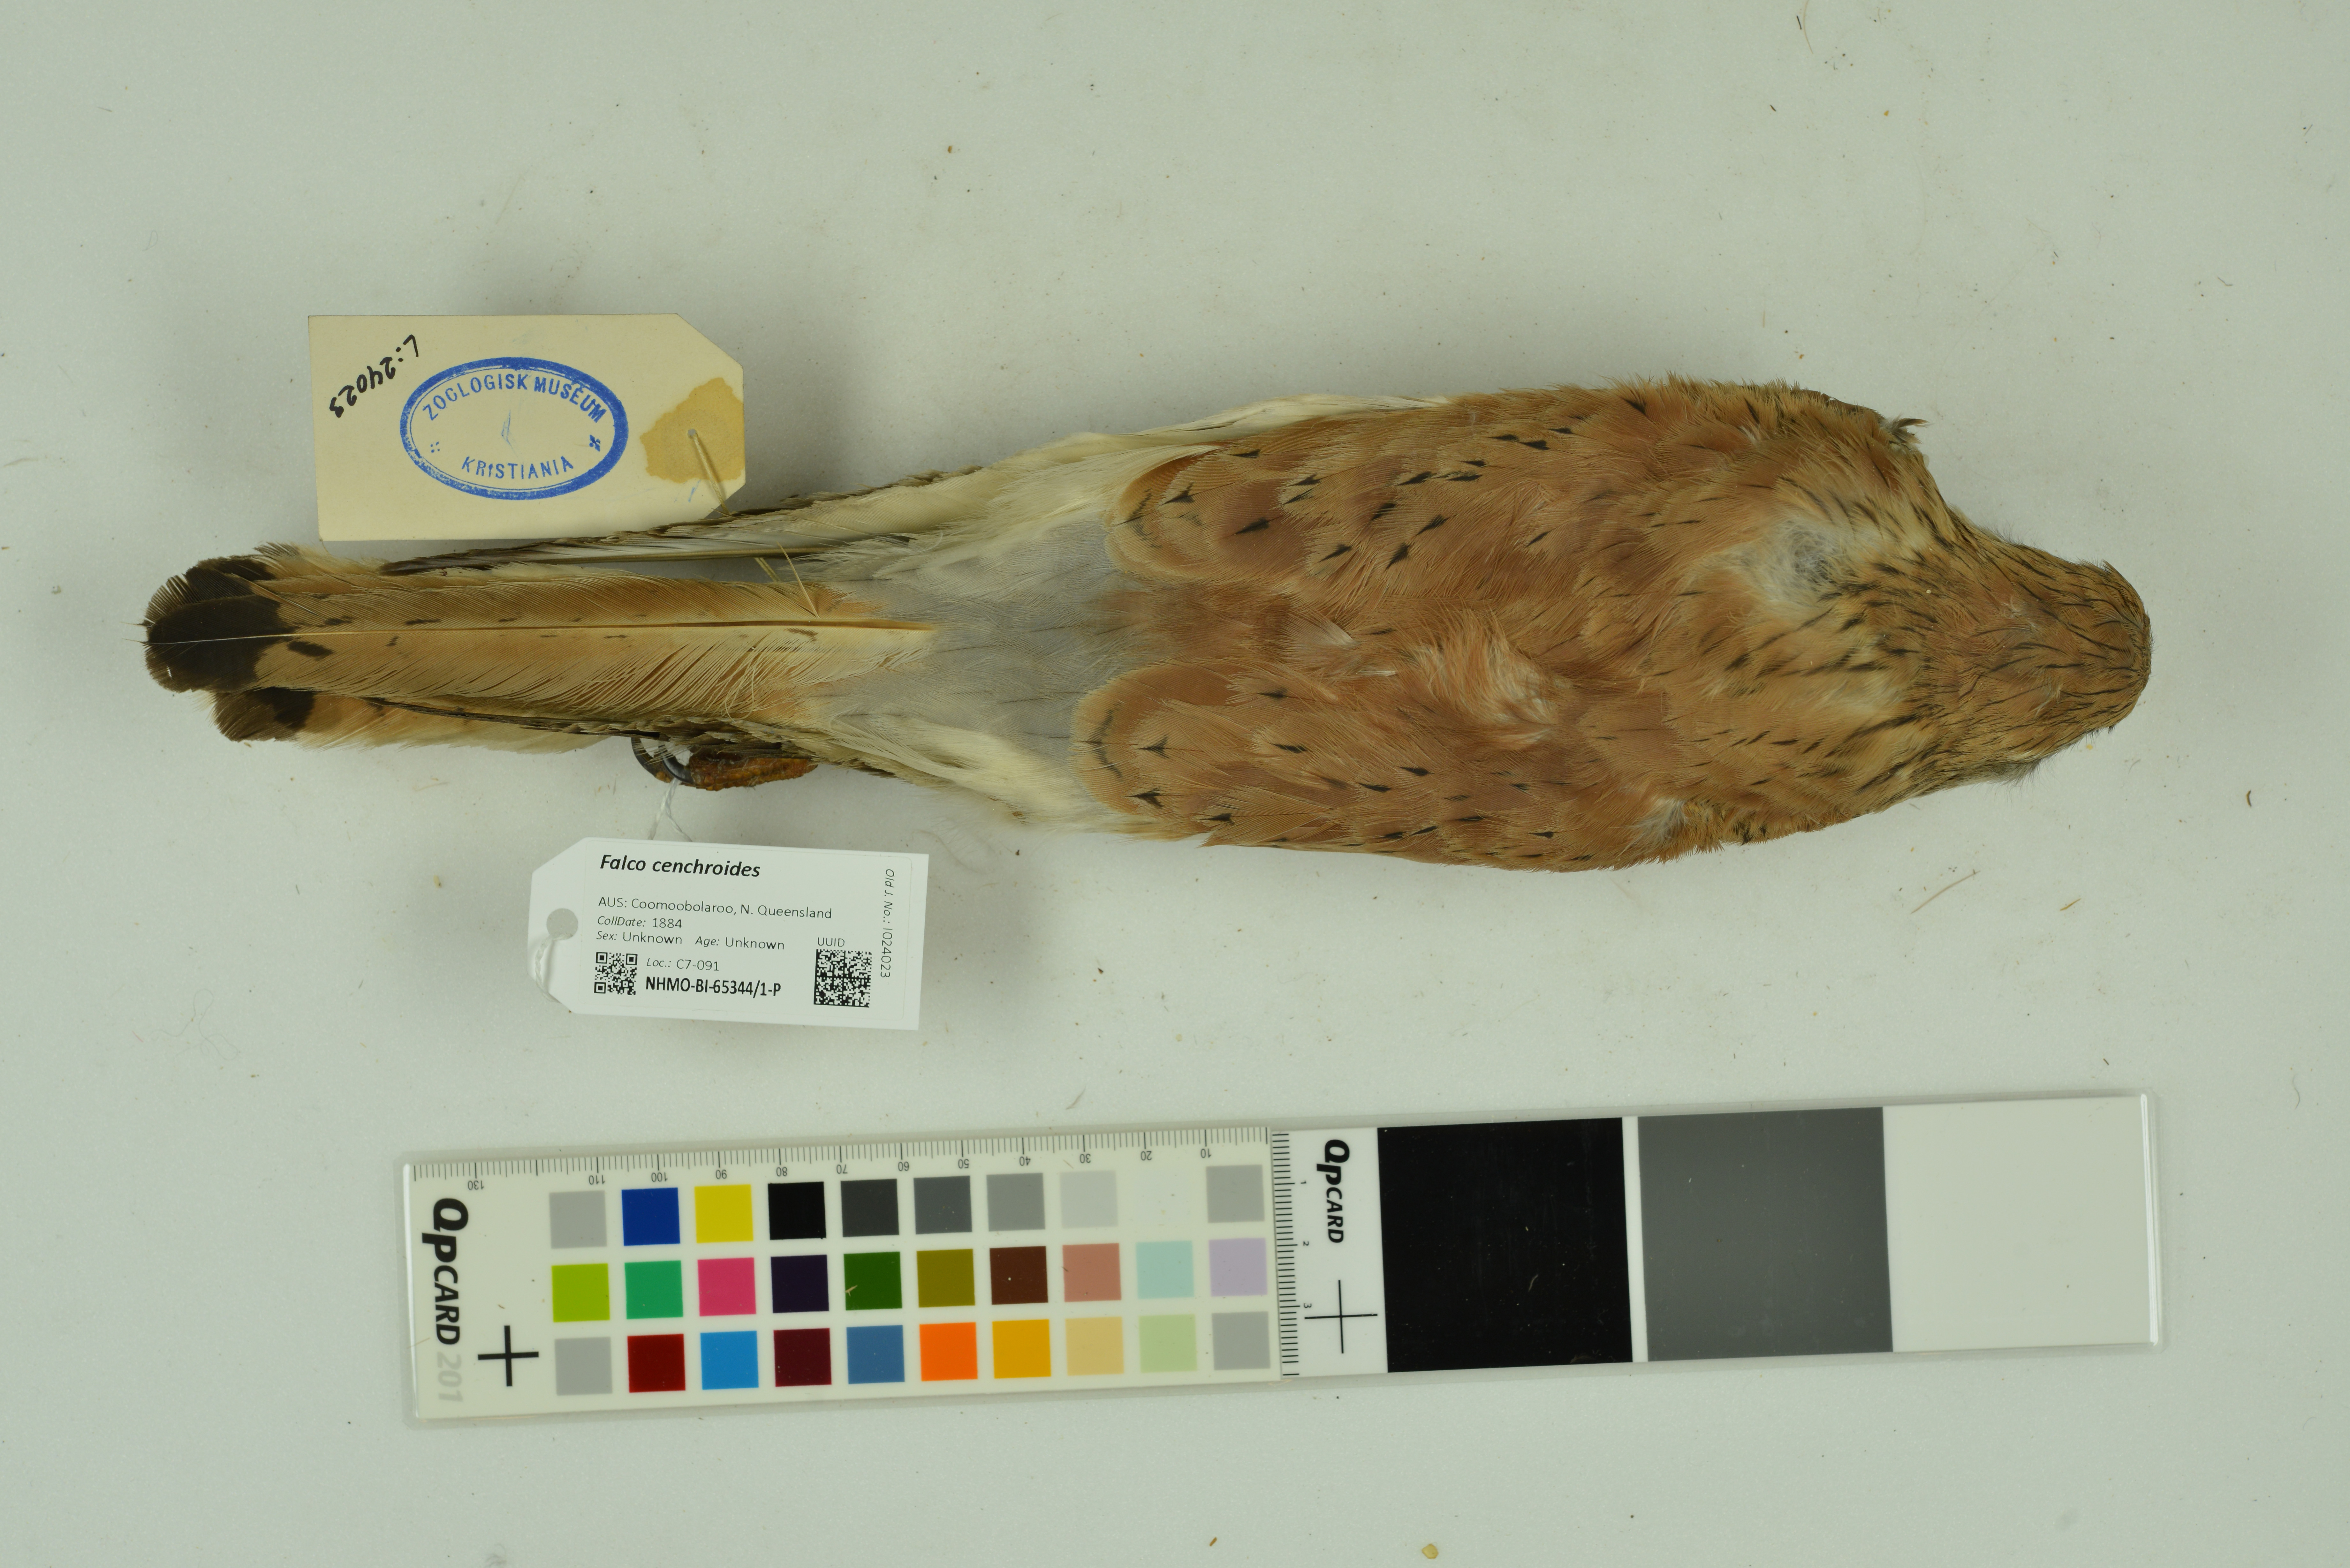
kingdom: Animalia
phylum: Chordata
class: Aves
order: Falconiformes
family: Falconidae
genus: Falco
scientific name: Falco cenchroides
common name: Nankeen kestrel
